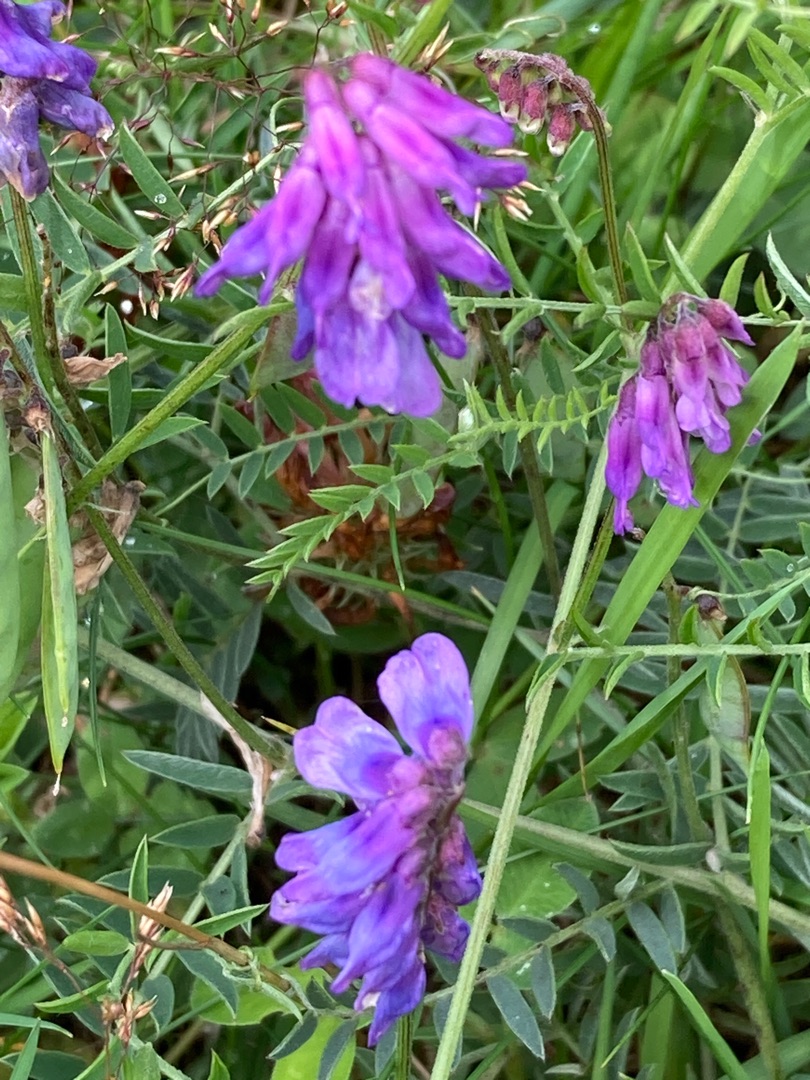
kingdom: Plantae
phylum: Tracheophyta
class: Magnoliopsida
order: Fabales
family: Fabaceae
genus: Vicia
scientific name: Vicia cracca
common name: Muse-vikke
